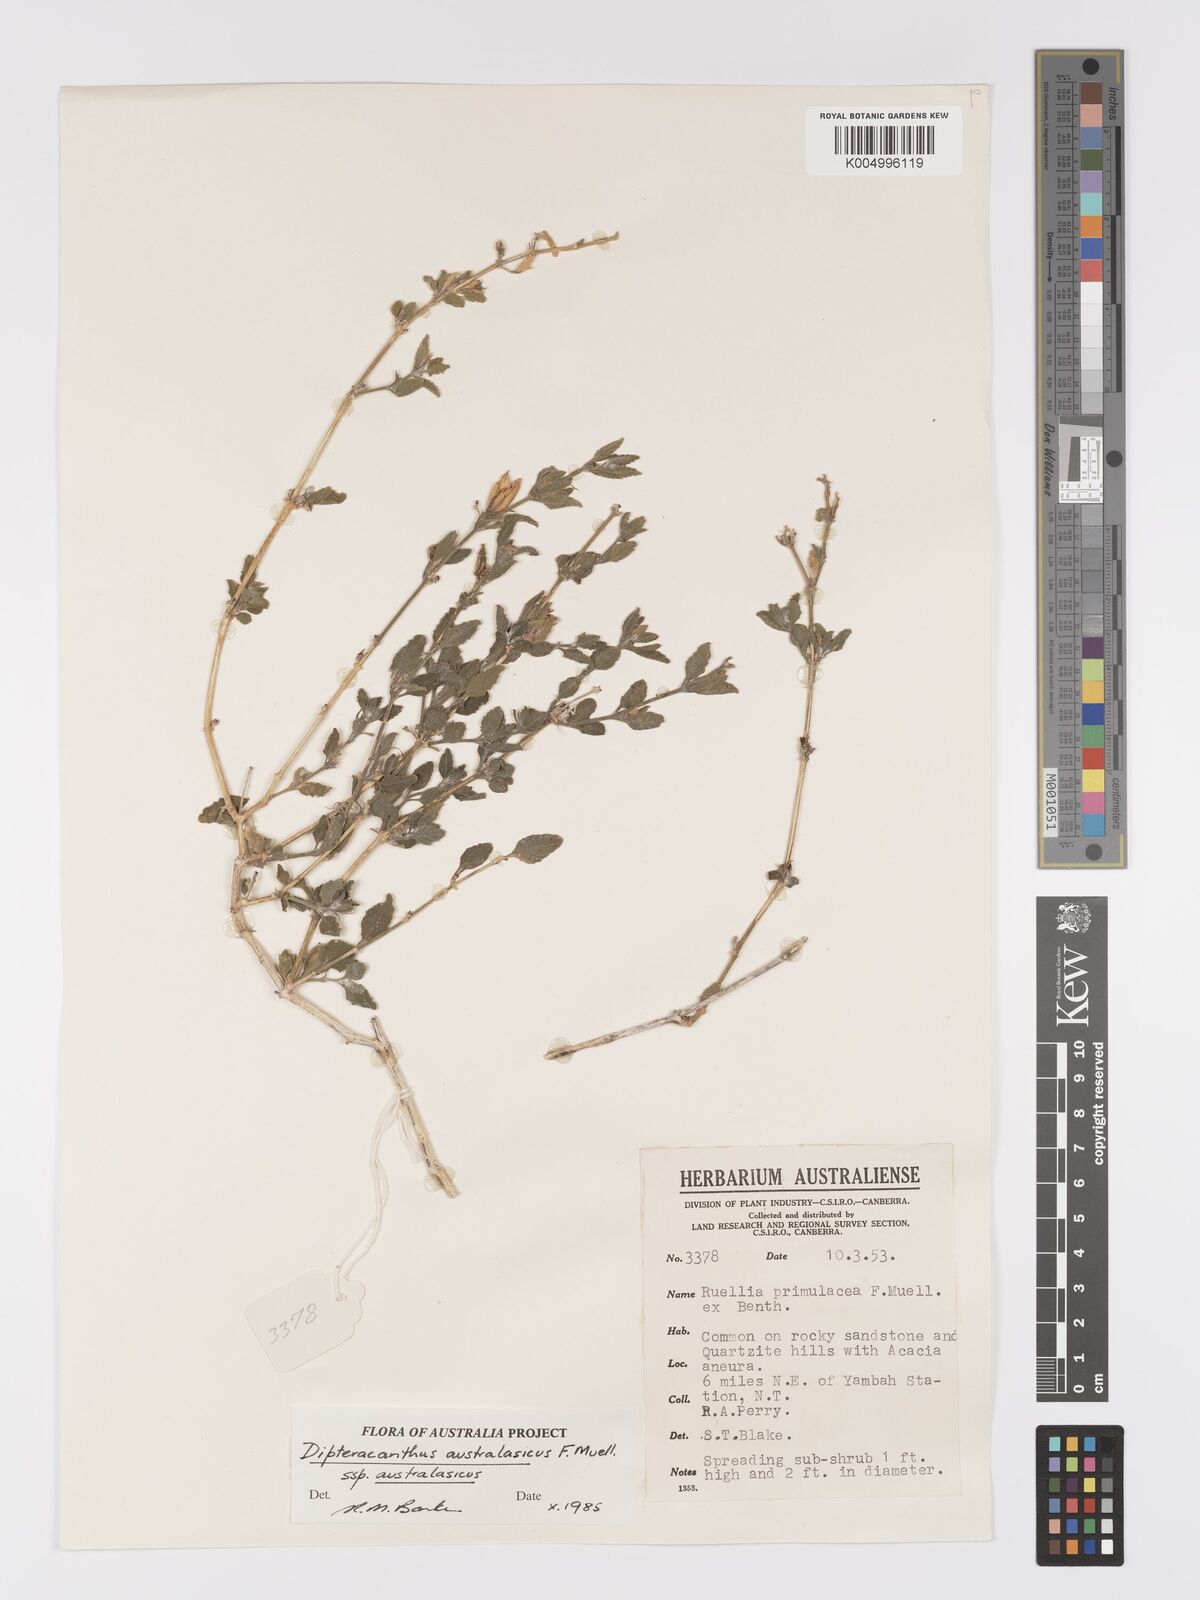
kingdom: Plantae
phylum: Tracheophyta
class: Magnoliopsida
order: Lamiales
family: Acanthaceae
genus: Ruellia
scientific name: Ruellia primulacea
